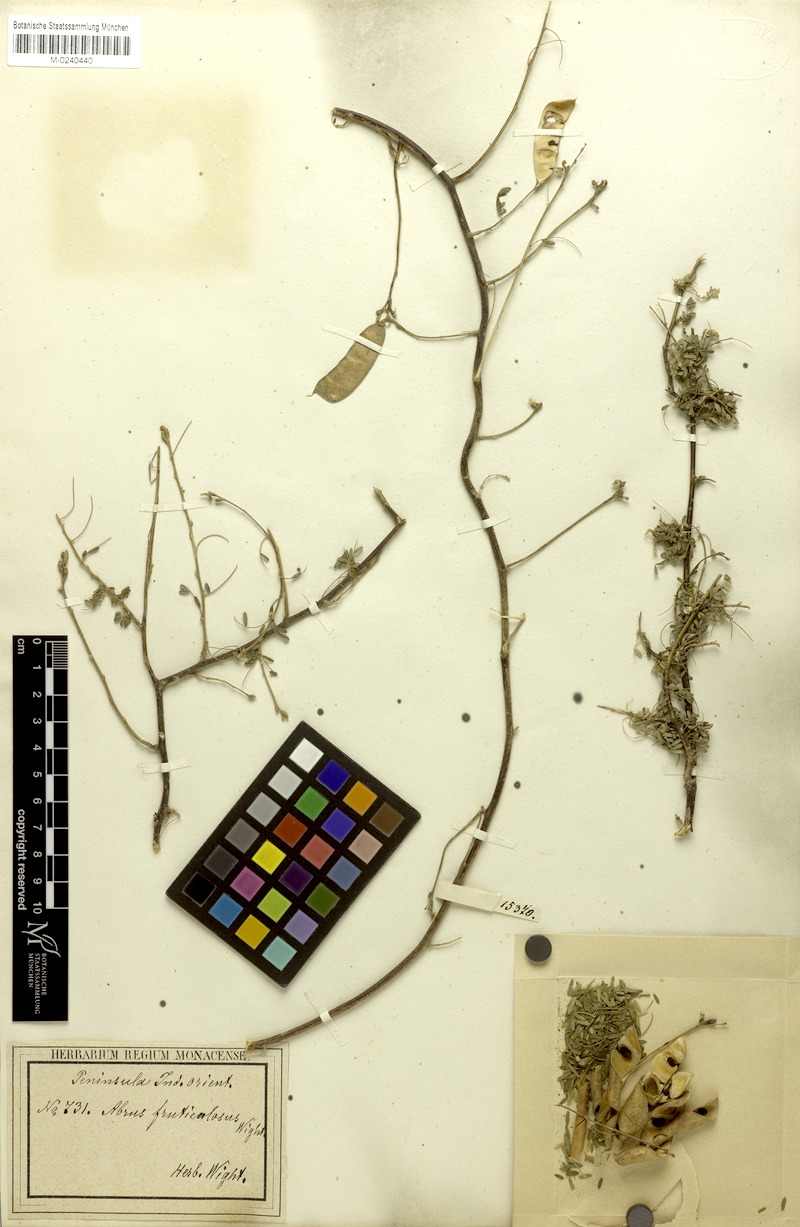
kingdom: Plantae
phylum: Tracheophyta
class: Magnoliopsida
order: Fabales
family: Fabaceae
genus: Abrus
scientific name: Abrus fruticulosus
